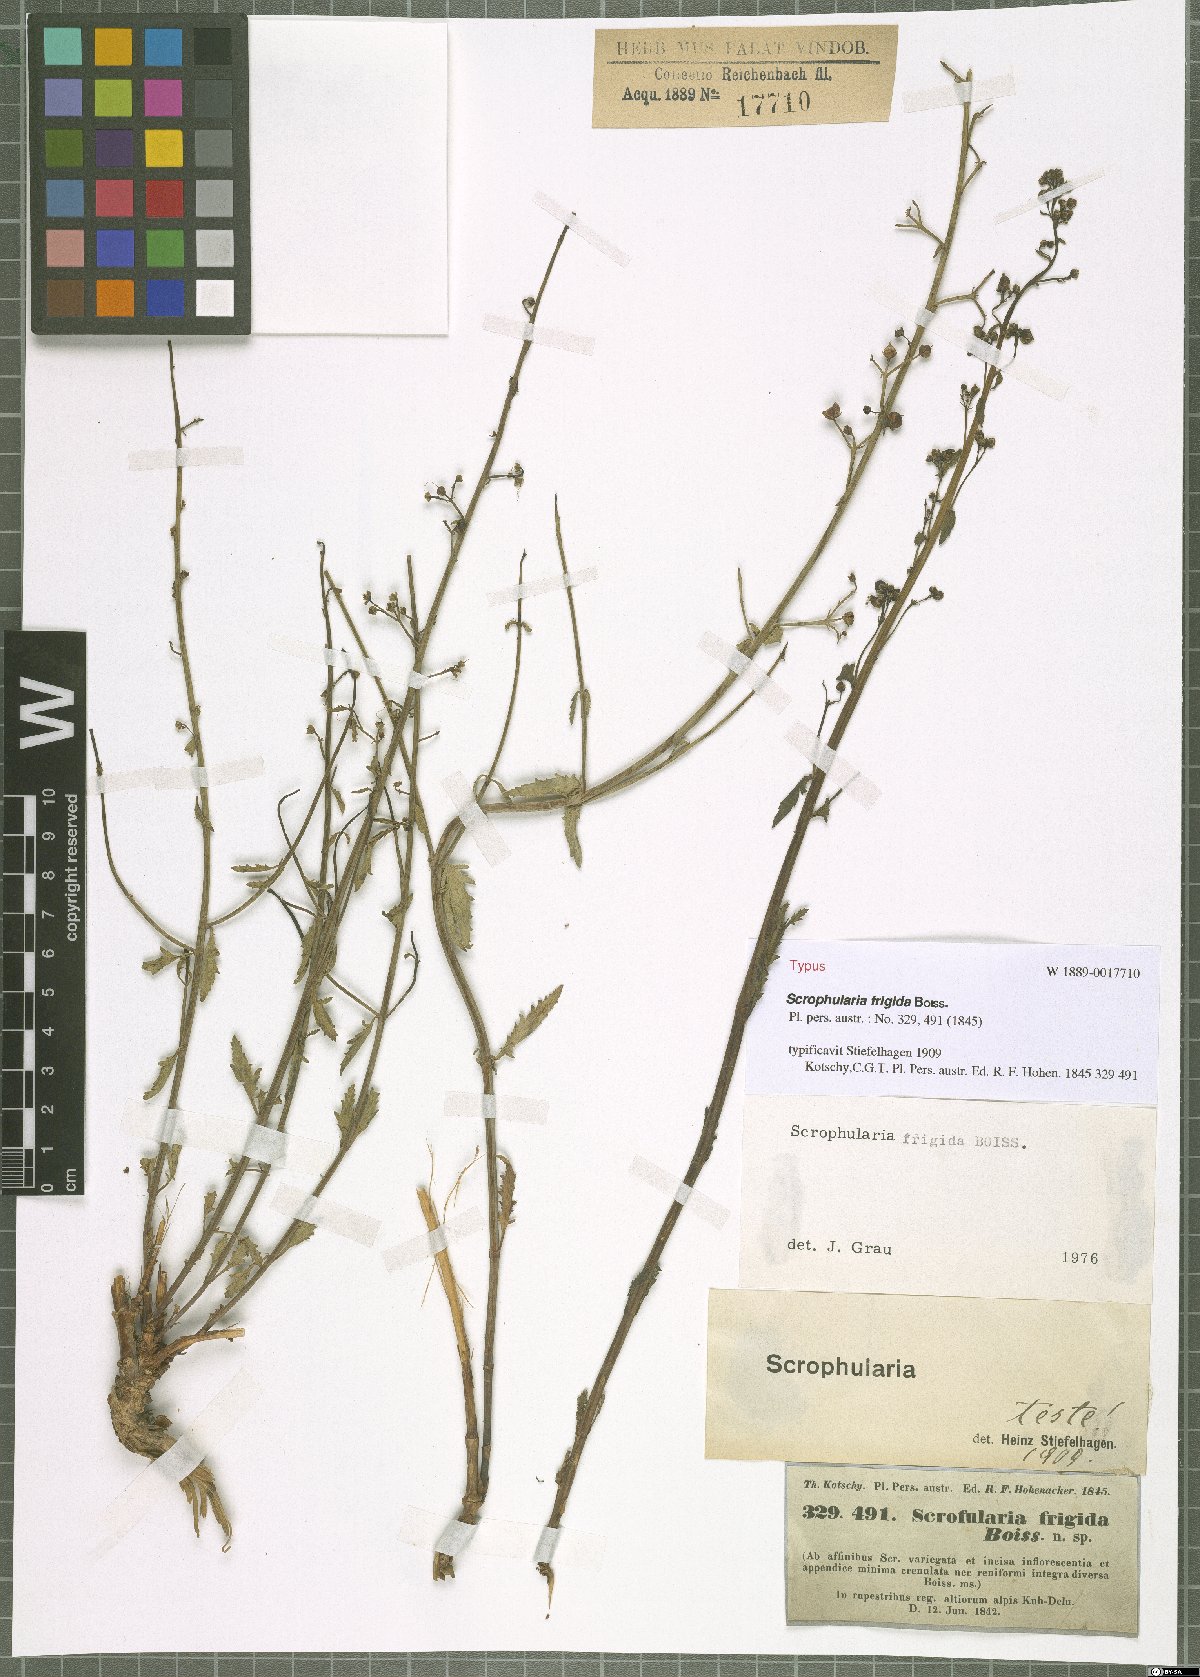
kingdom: Plantae
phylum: Tracheophyta
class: Magnoliopsida
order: Lamiales
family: Scrophulariaceae
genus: Scrophularia
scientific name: Scrophularia frigida
